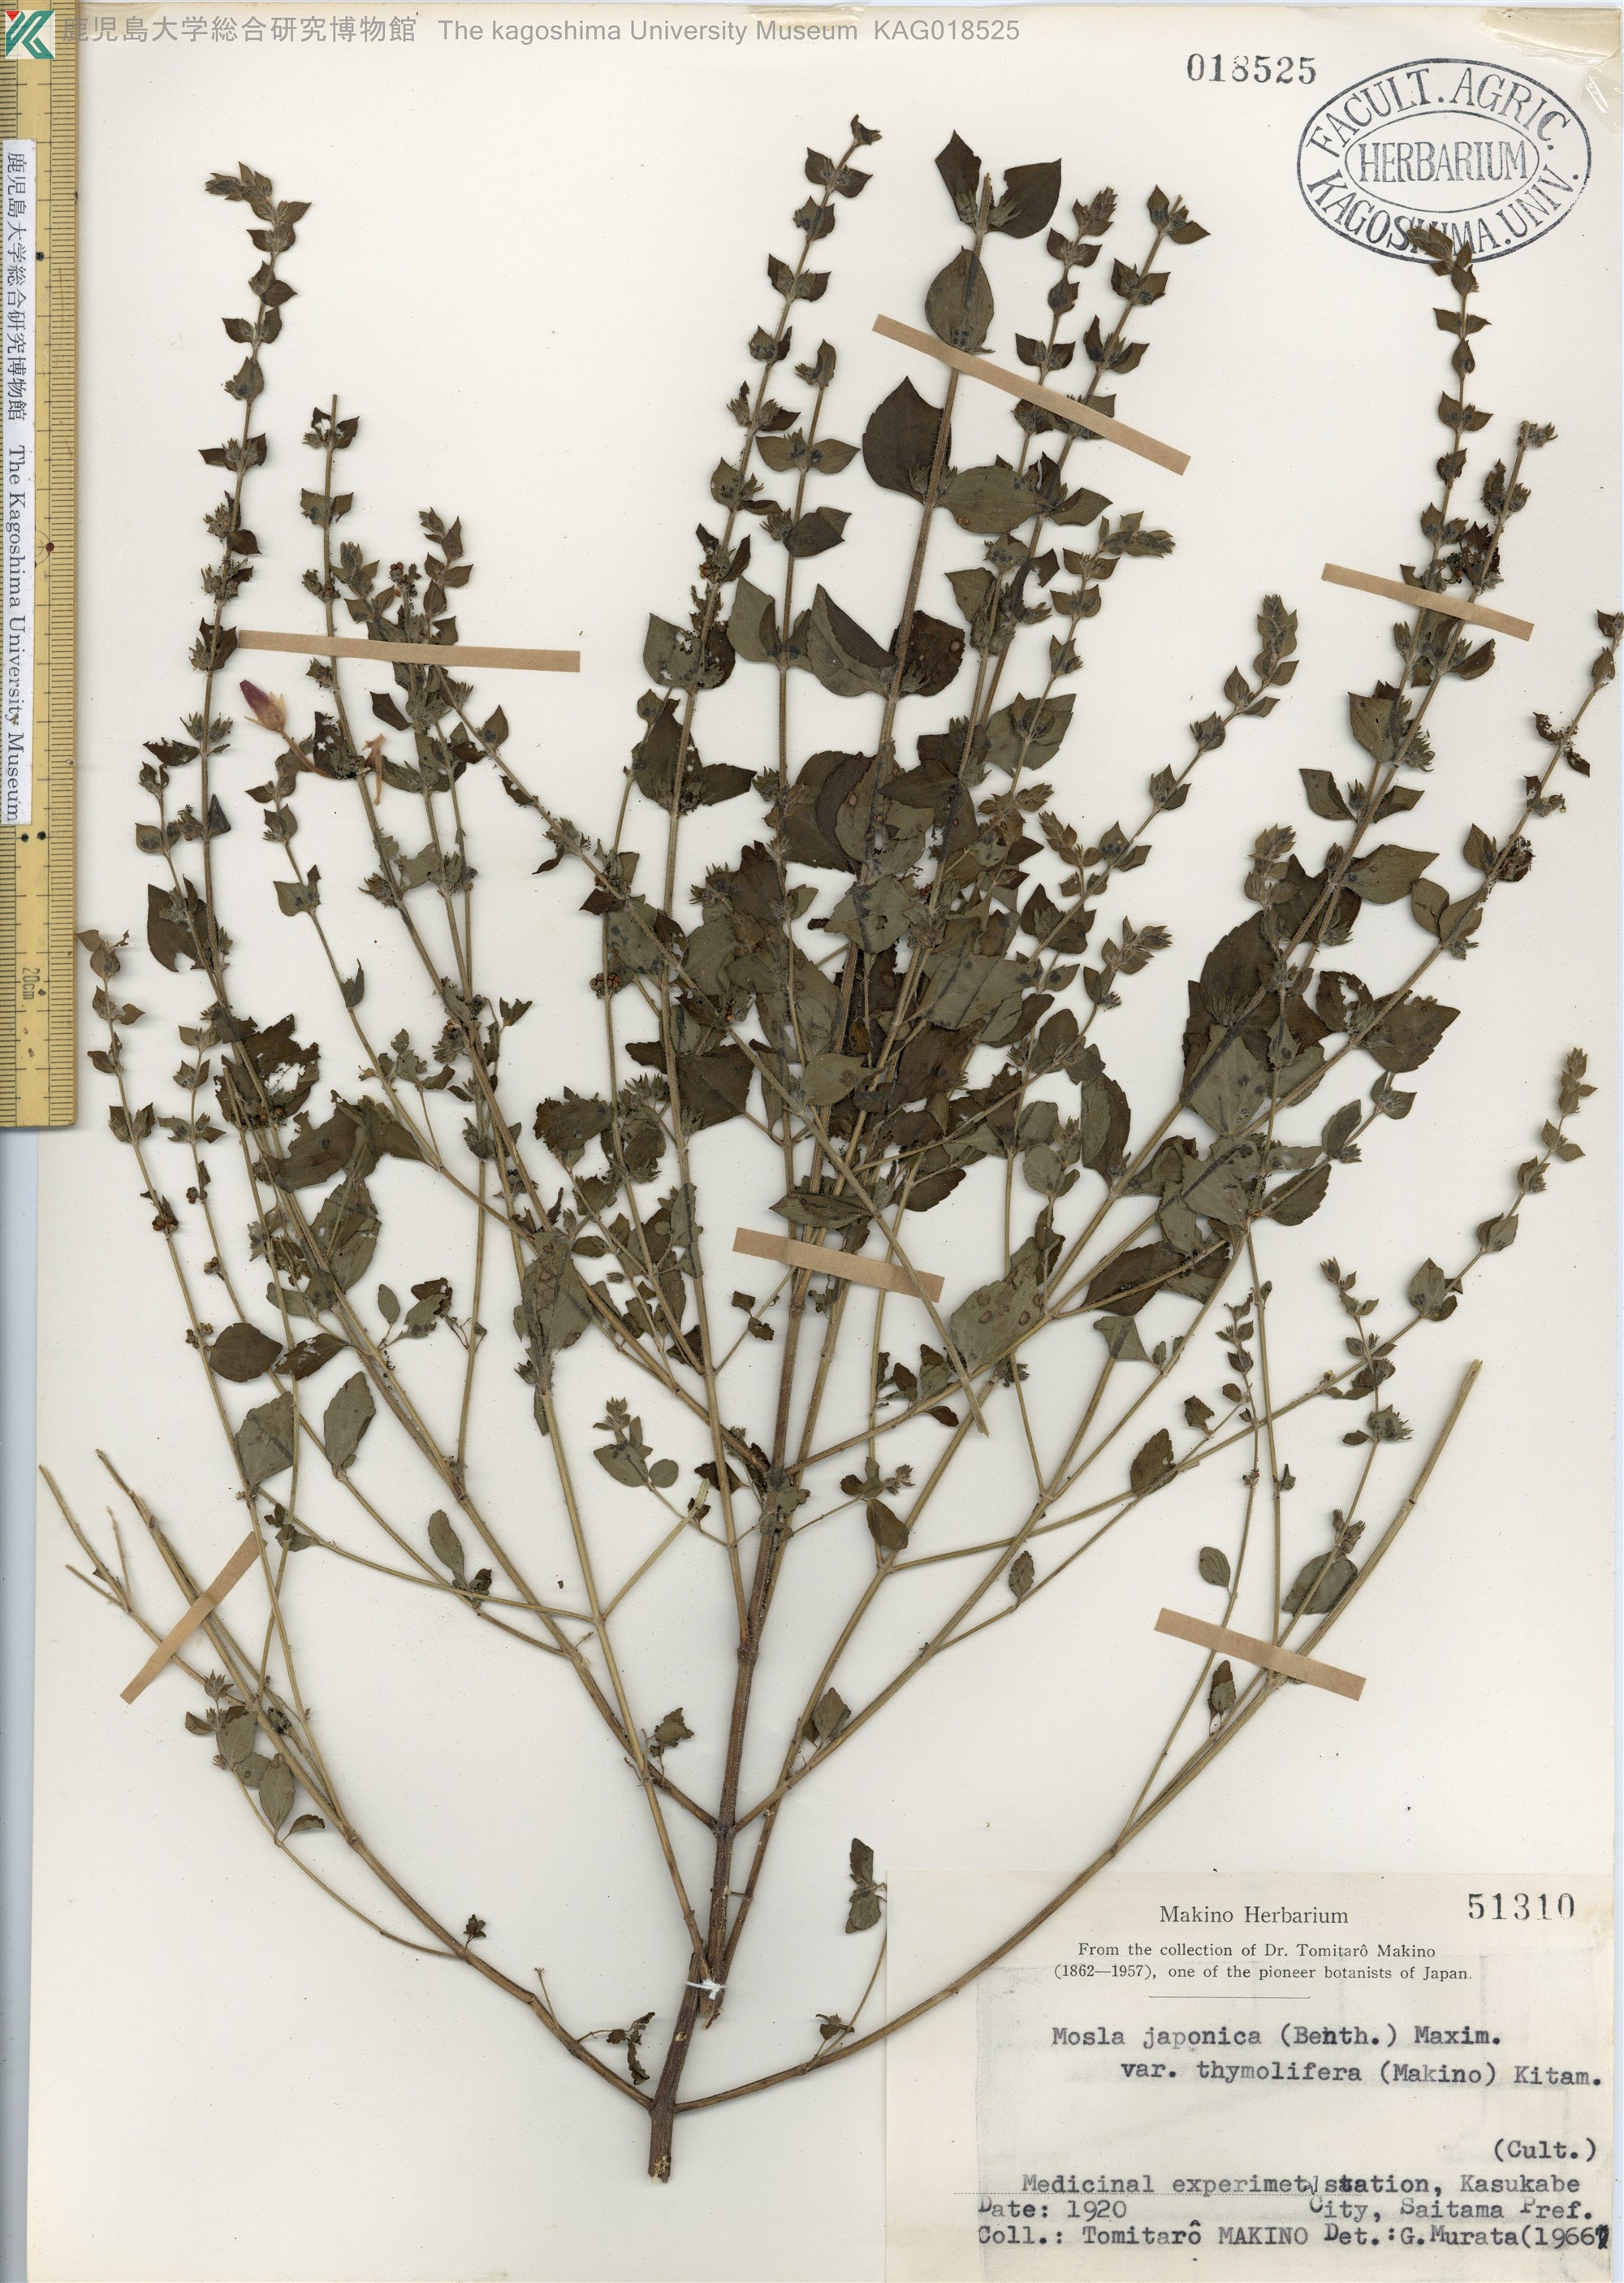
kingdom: Plantae
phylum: Tracheophyta
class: Magnoliopsida
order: Lamiales
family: Lamiaceae
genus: Mosla
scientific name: Mosla japonica
